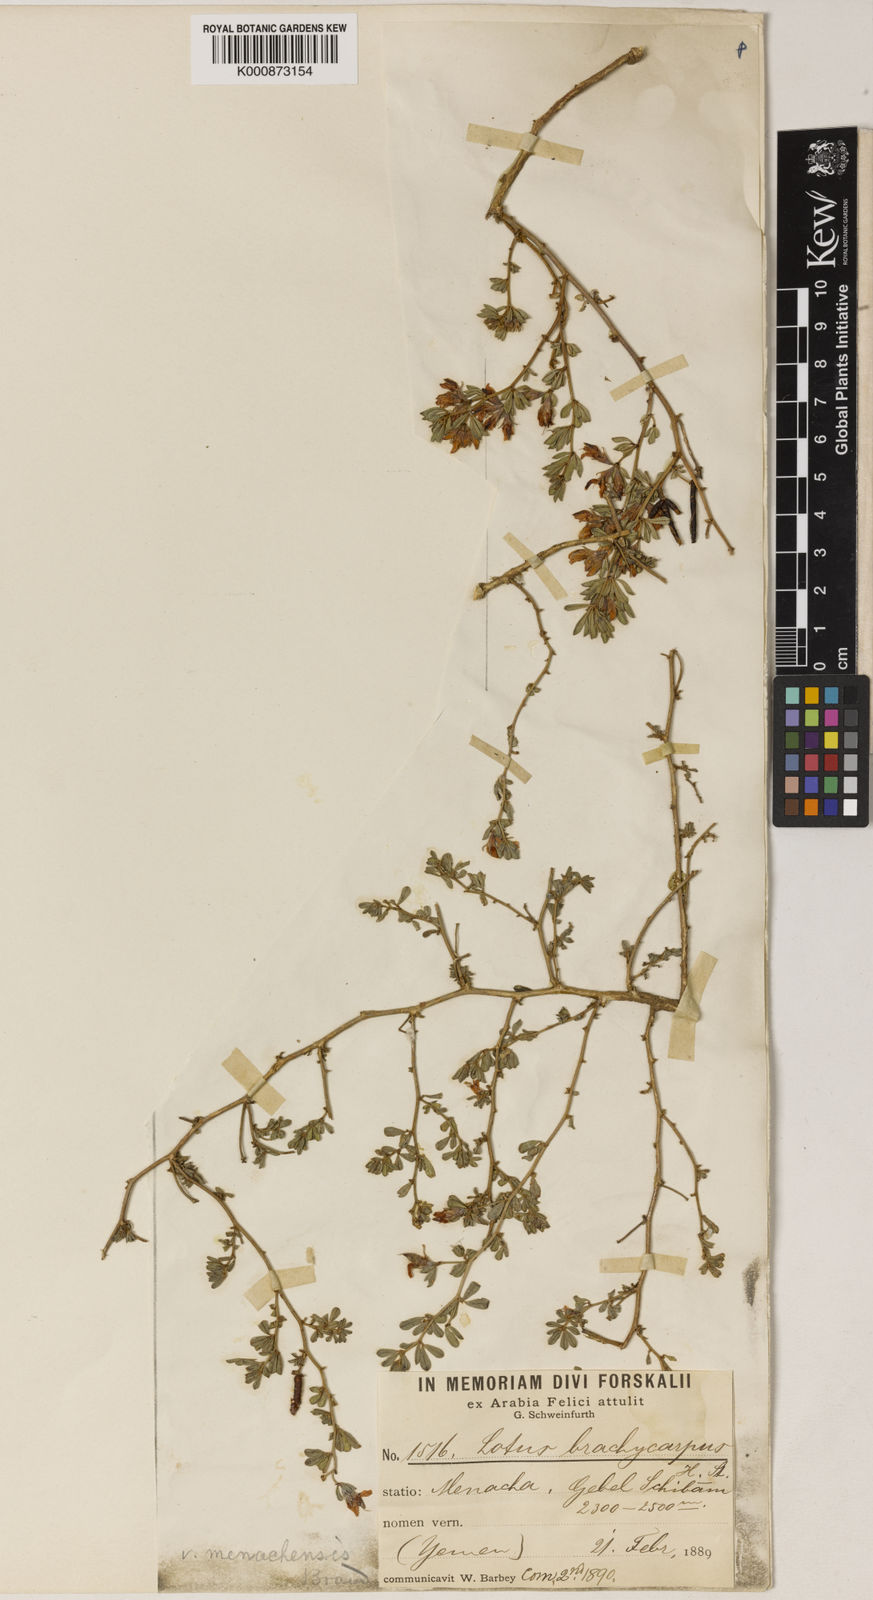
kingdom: Plantae
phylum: Tracheophyta
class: Magnoliopsida
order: Fabales
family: Fabaceae
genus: Lotus
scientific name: Lotus quinatus
